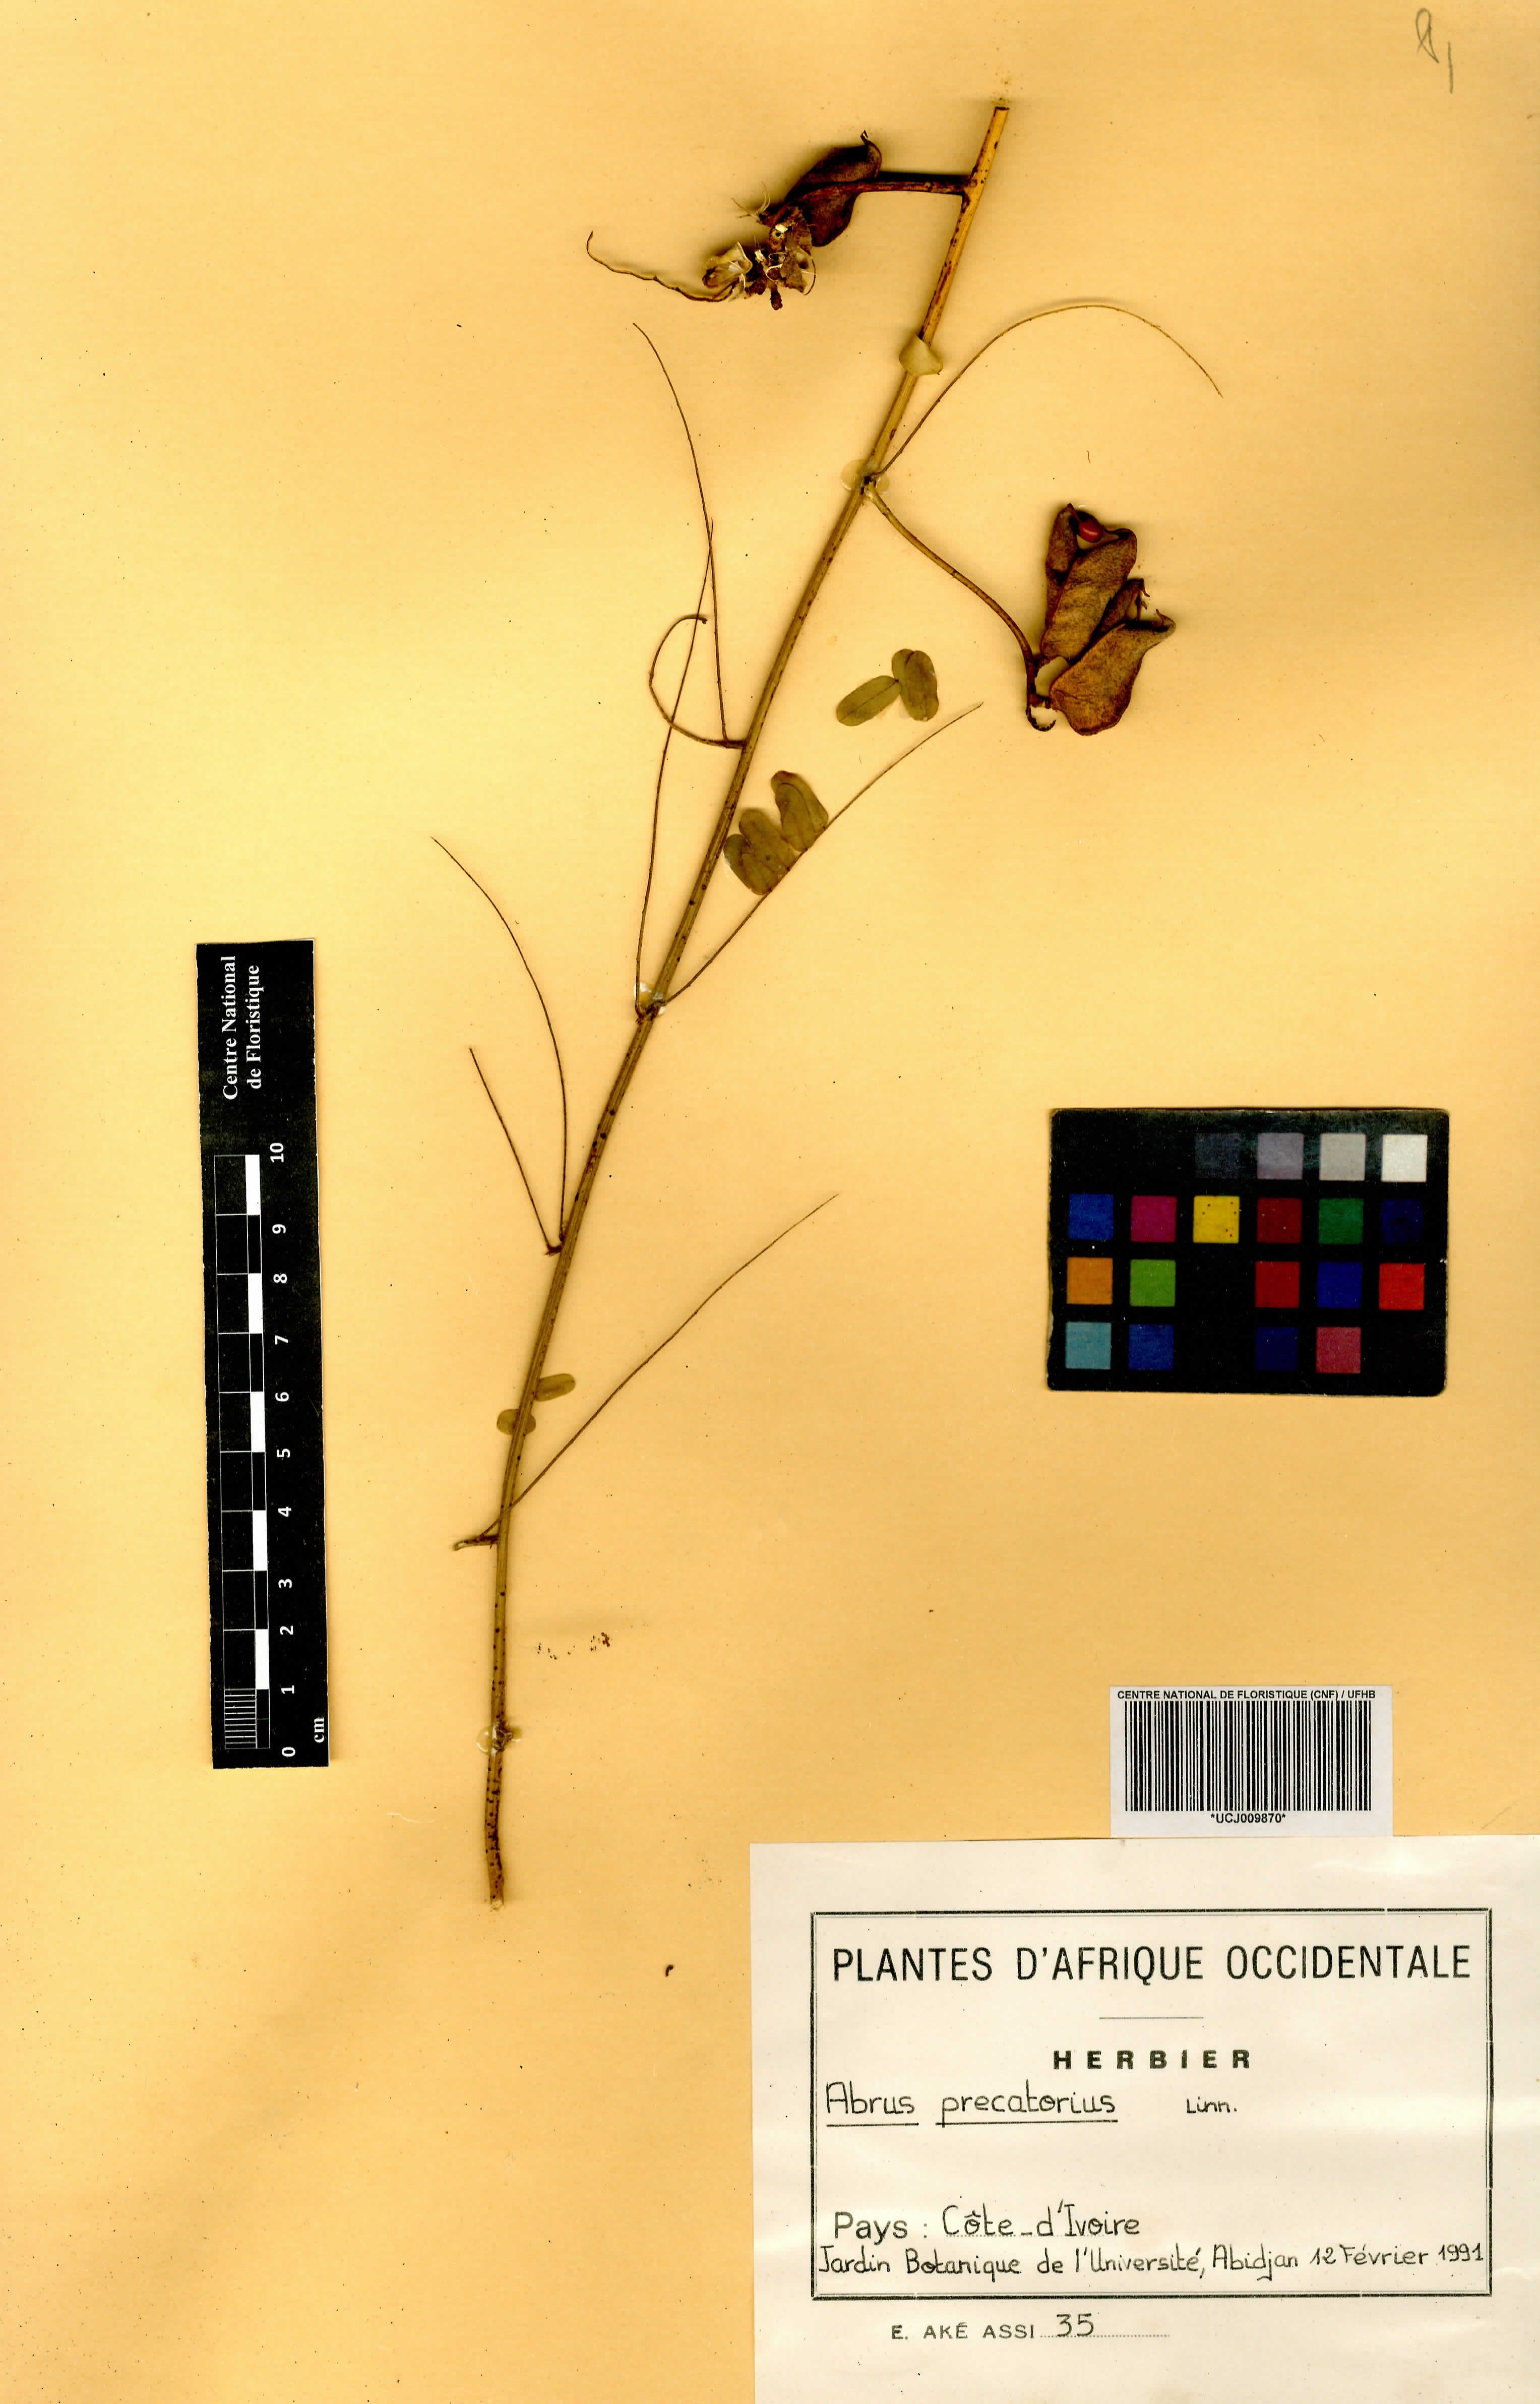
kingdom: Plantae
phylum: Tracheophyta
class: Magnoliopsida
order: Fabales
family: Fabaceae
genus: Abrus
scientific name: Abrus precatorius
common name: Rosarypea
